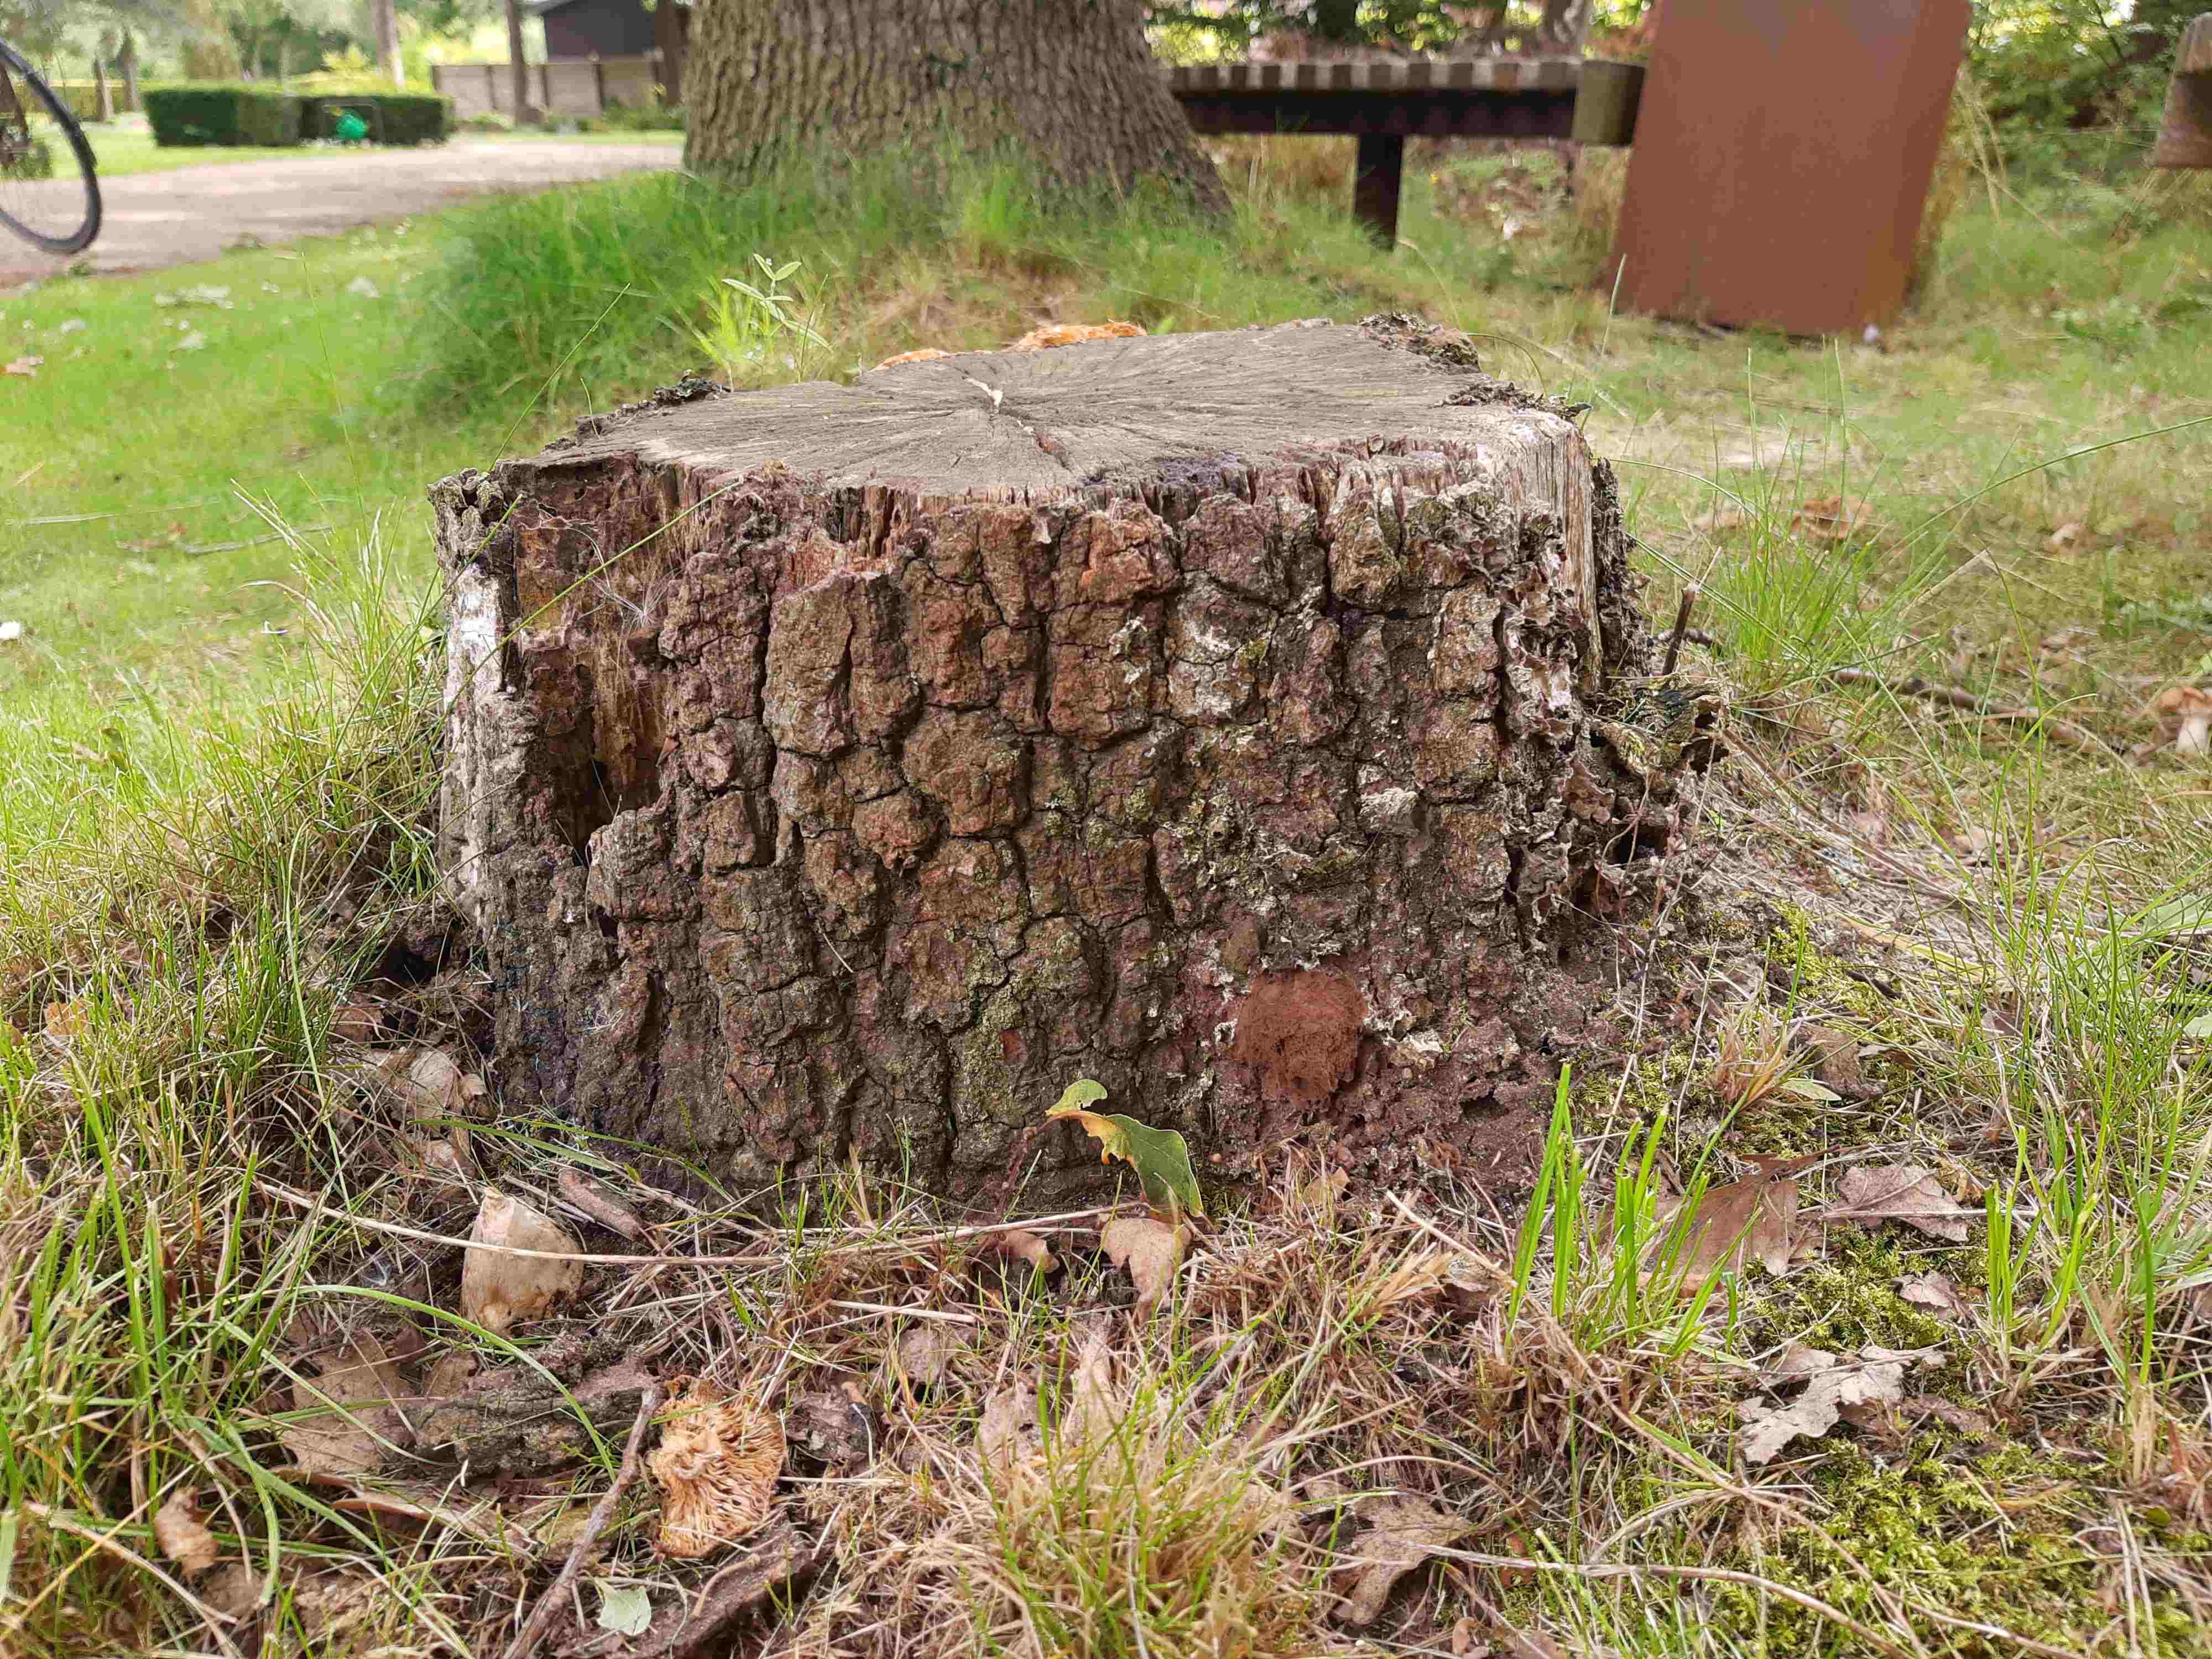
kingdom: Protozoa
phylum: Mycetozoa
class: Myxomycetes
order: Cribrariales
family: Tubiferaceae
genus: Reticularia
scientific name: Reticularia lycoperdon
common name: skinnende støvpude
